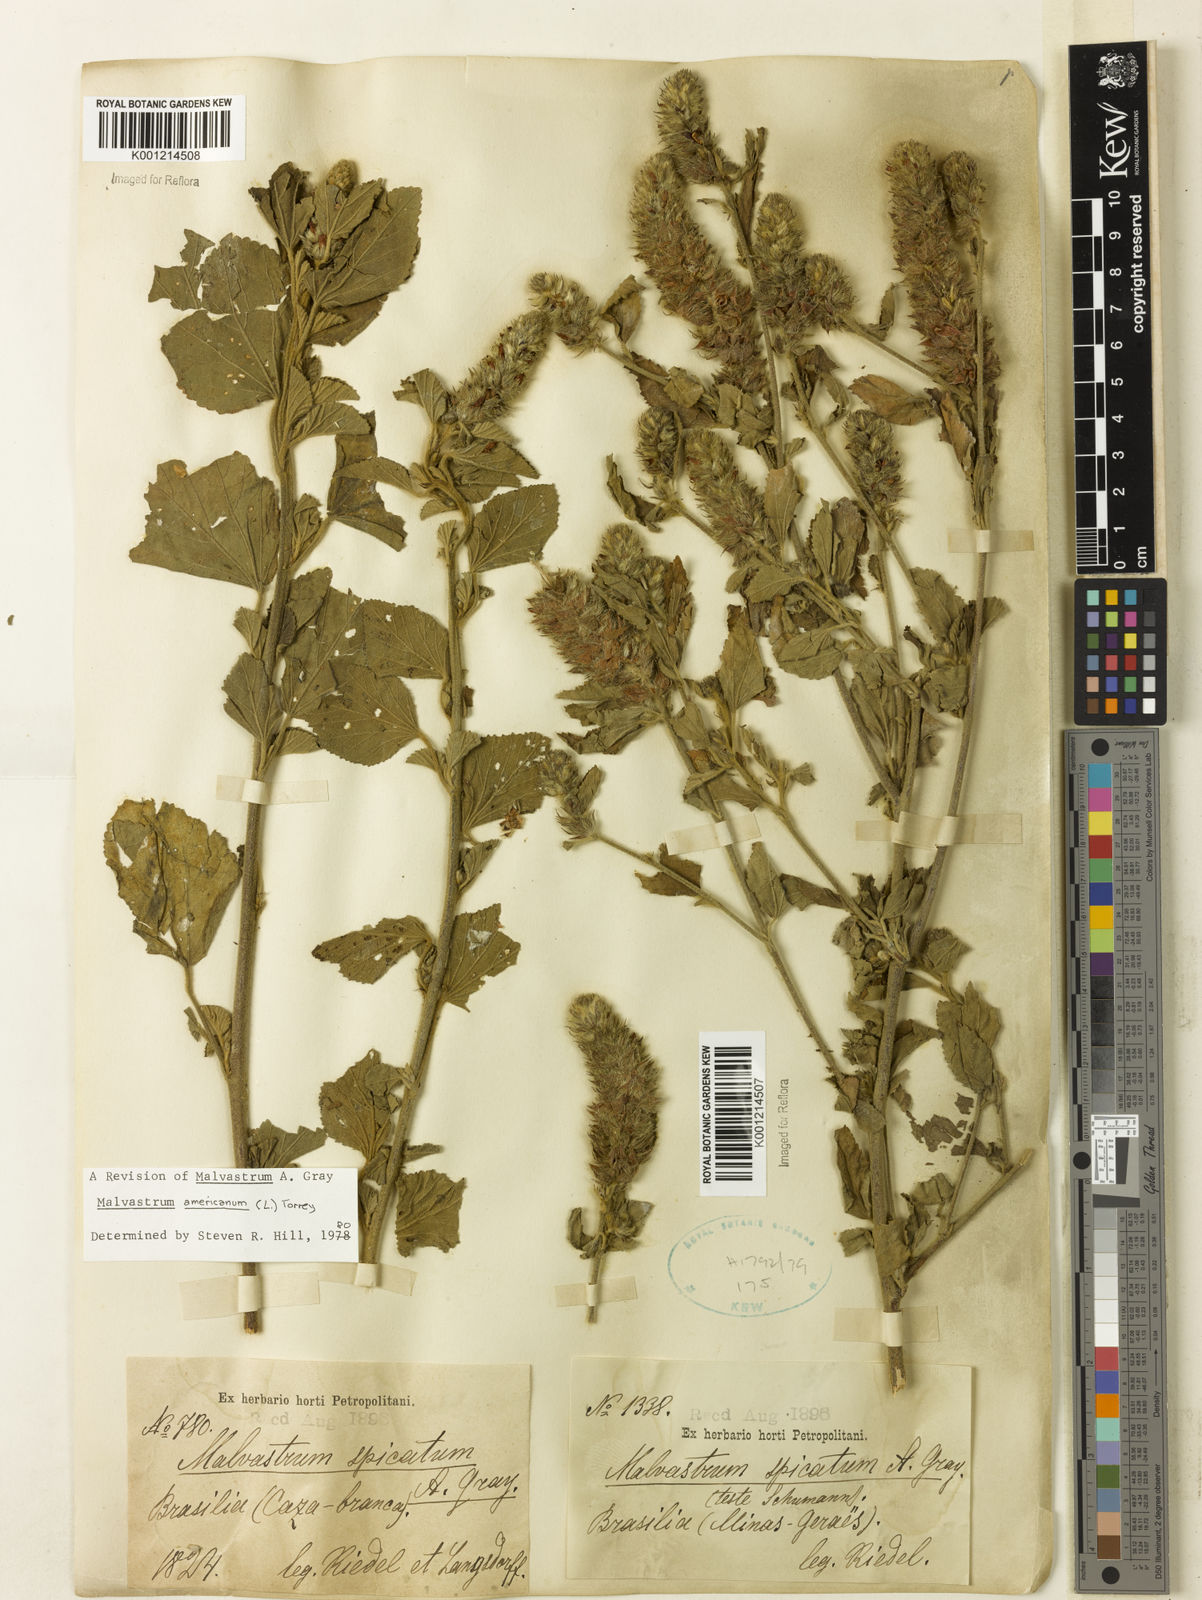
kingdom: Plantae
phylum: Tracheophyta
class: Magnoliopsida
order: Malvales
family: Malvaceae
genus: Malvastrum
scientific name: Malvastrum americanum
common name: Spiked malvastrum
